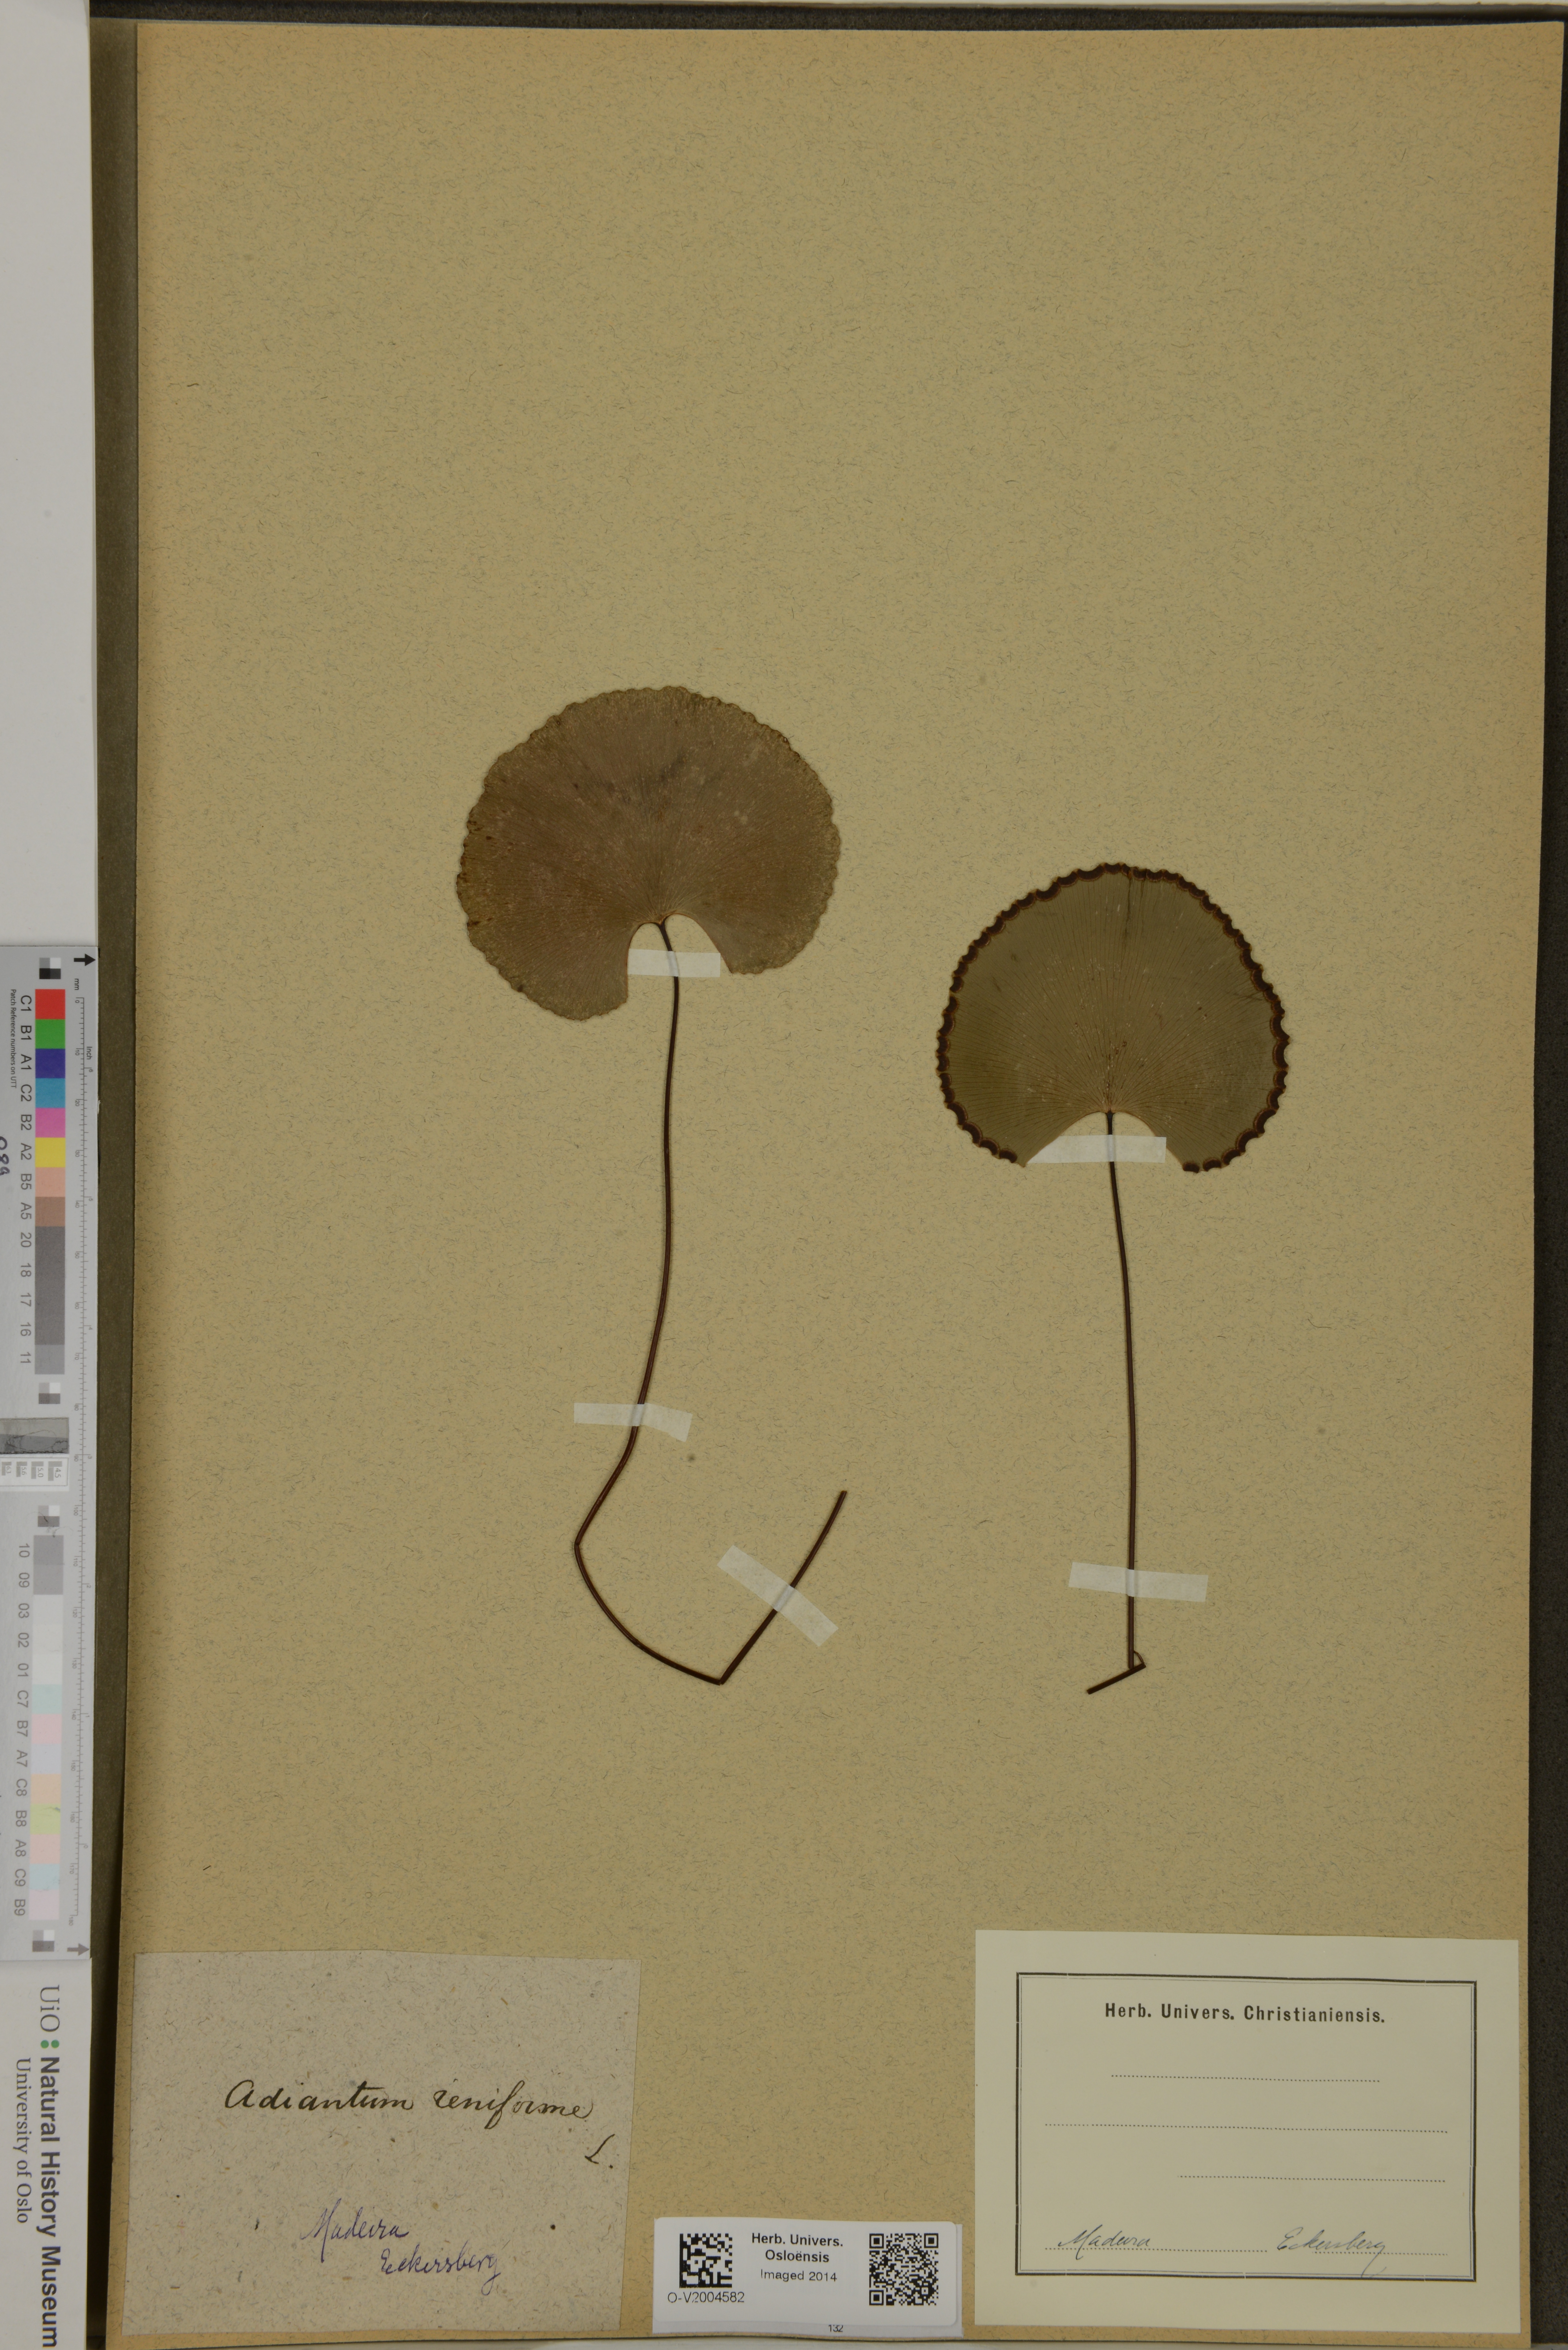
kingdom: Plantae
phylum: Tracheophyta
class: Polypodiopsida
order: Polypodiales
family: Pteridaceae
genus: Adiantum
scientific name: Adiantum reniforme
